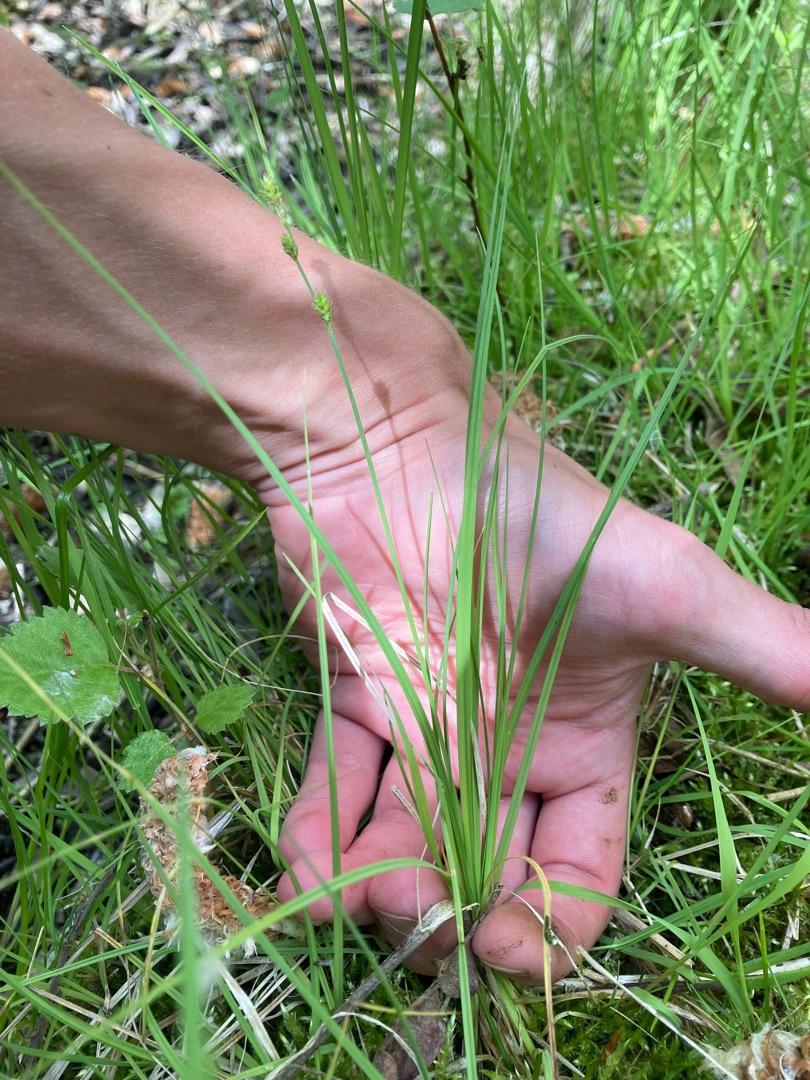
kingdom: Plantae
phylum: Tracheophyta
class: Liliopsida
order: Poales
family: Cyperaceae
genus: Carex
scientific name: Carex canescens
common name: Grå star
